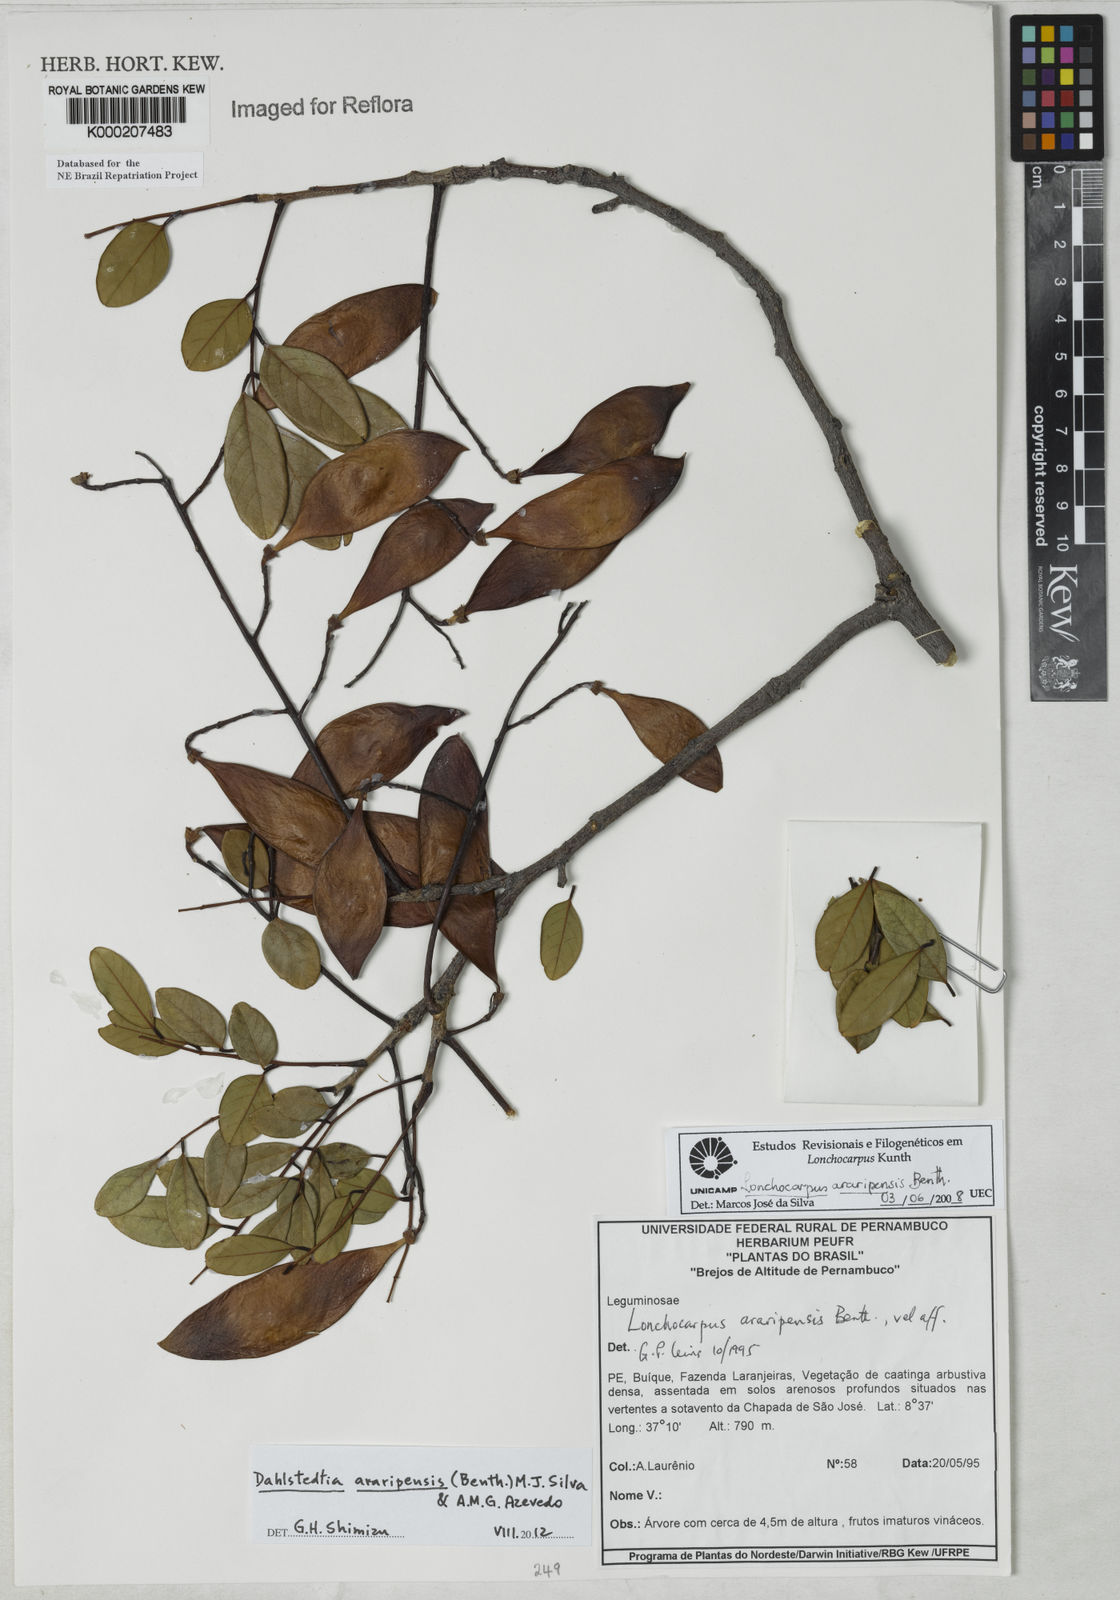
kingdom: Plantae
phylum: Tracheophyta
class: Magnoliopsida
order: Fabales
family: Fabaceae
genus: Dahlstedtia
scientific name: Dahlstedtia araripensis
